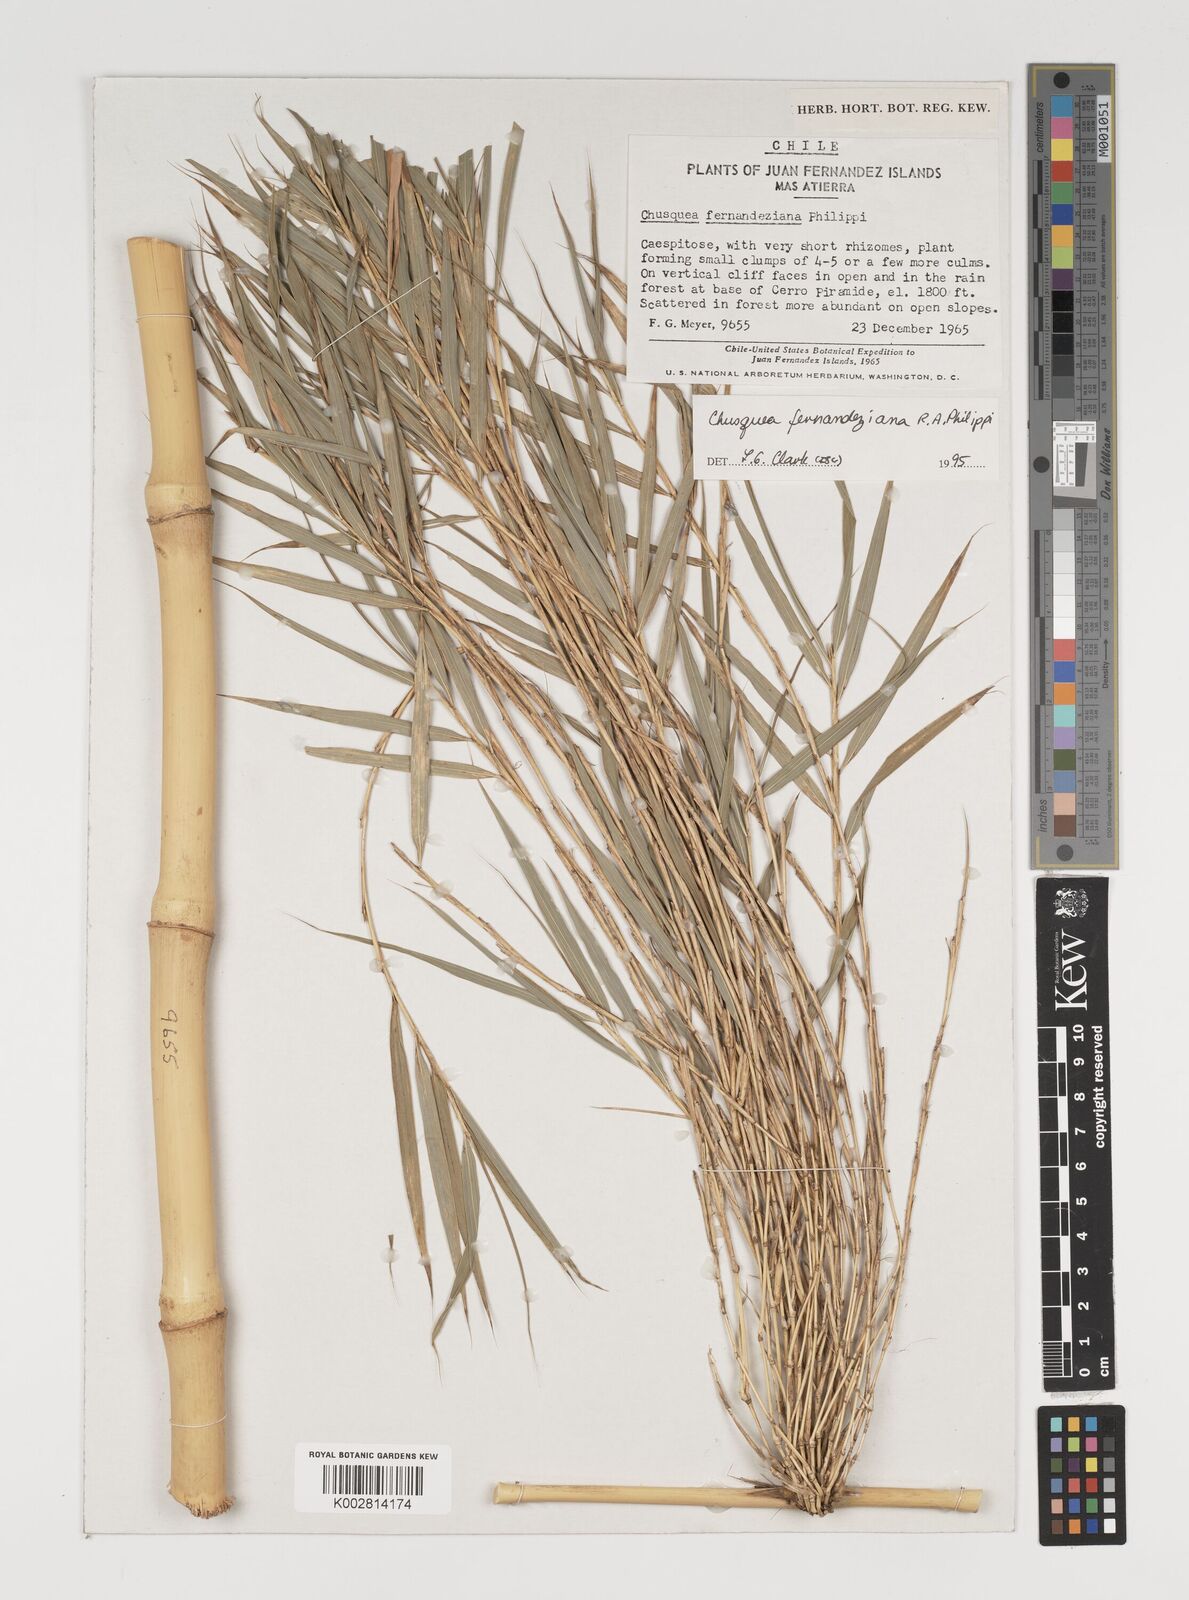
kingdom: Plantae
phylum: Tracheophyta
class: Liliopsida
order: Poales
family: Poaceae
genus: Chusquea
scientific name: Chusquea ligulata
